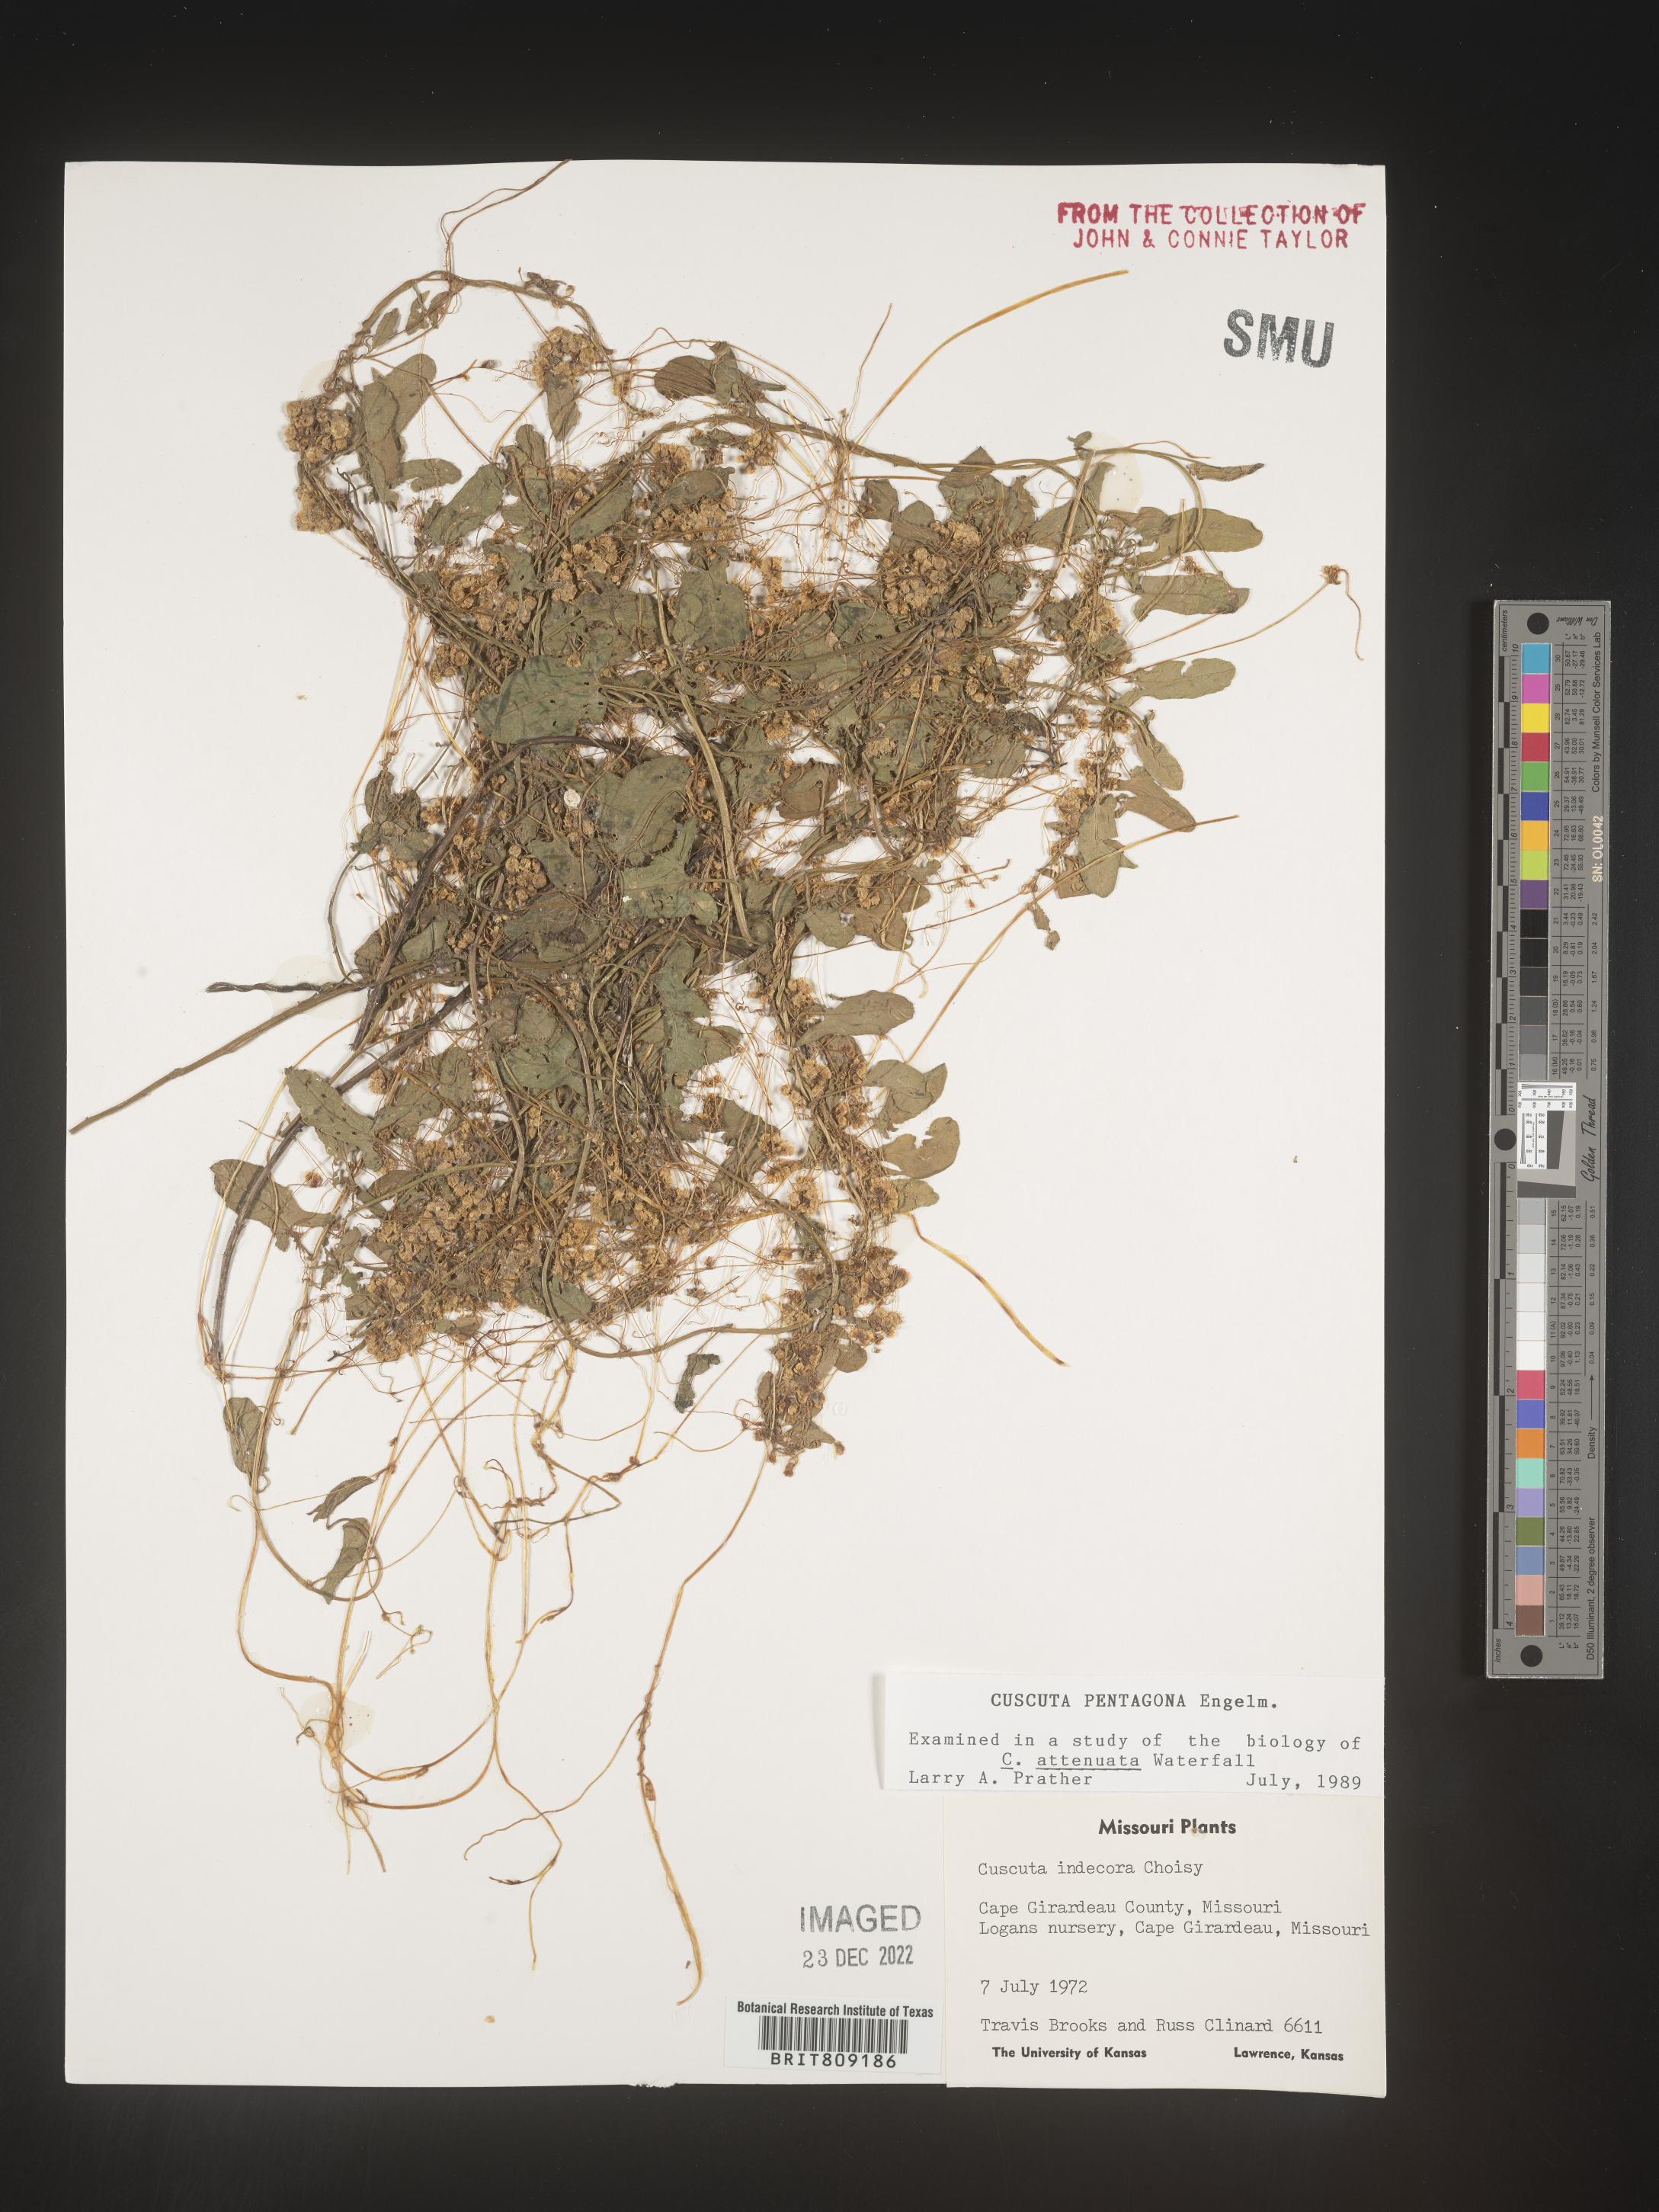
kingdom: Plantae
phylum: Tracheophyta
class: Magnoliopsida
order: Solanales
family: Convolvulaceae
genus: Cuscuta
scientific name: Cuscuta campestris
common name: Yellow dodder
